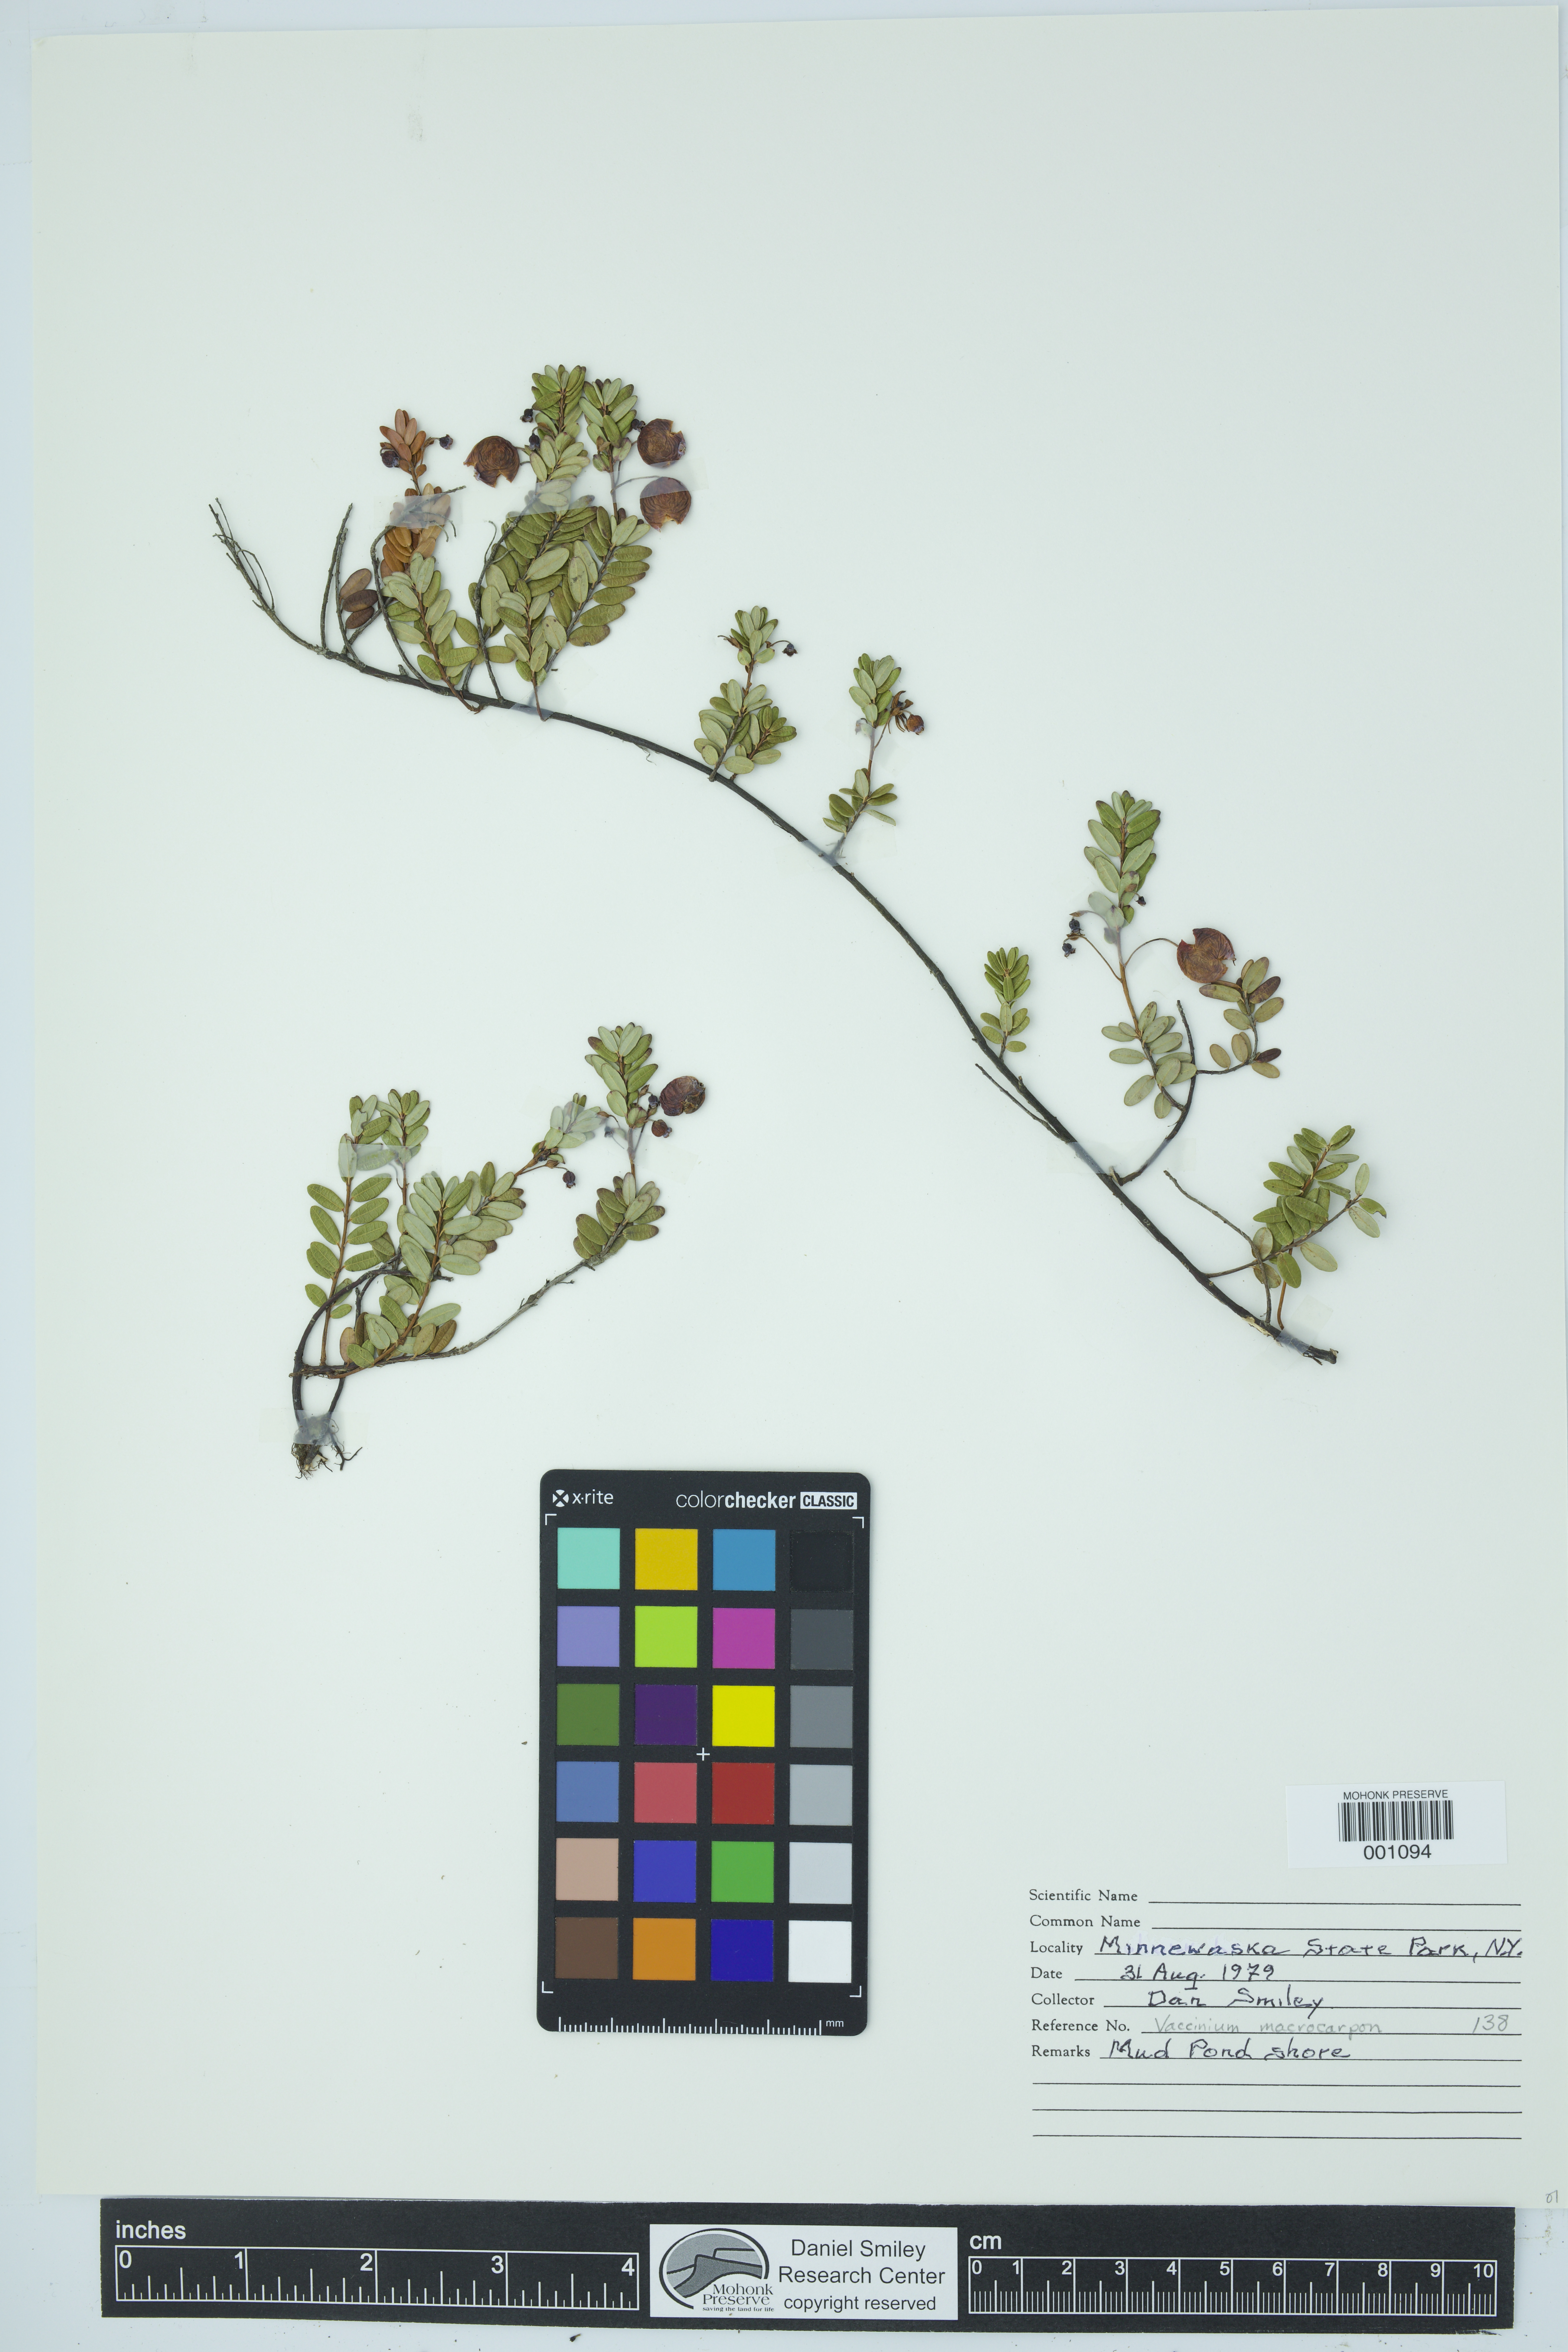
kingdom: Plantae
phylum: Tracheophyta
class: Magnoliopsida
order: Ericales
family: Ericaceae
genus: Vaccinium
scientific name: Vaccinium macrocarpon
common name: American cranberry
